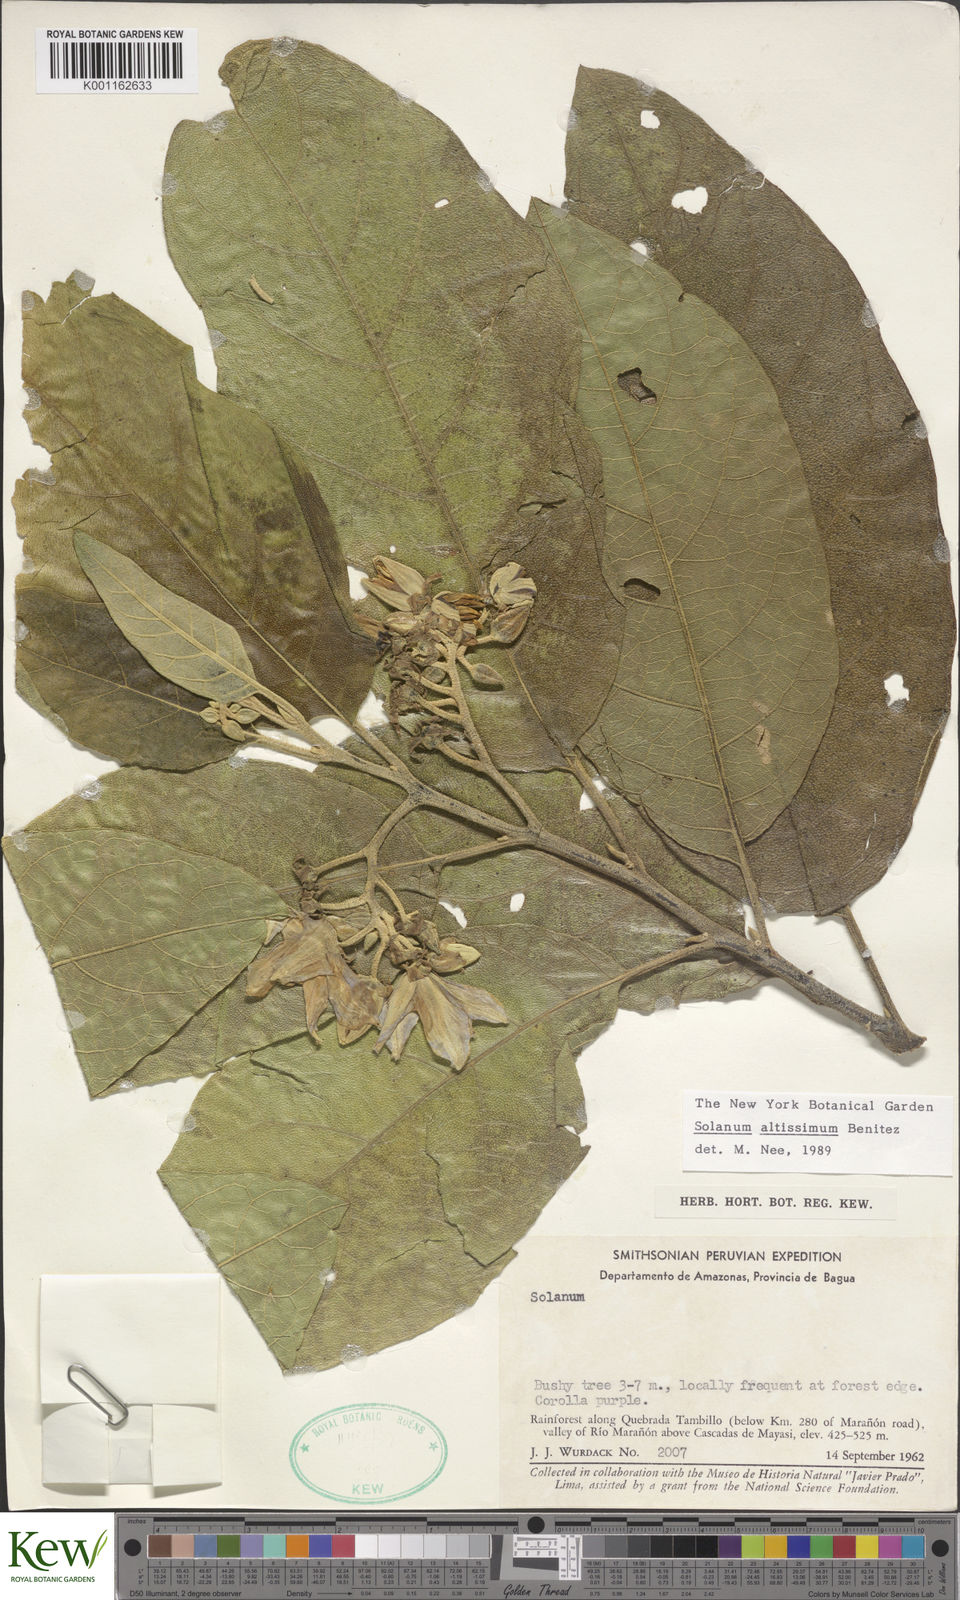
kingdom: Plantae
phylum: Tracheophyta
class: Magnoliopsida
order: Solanales
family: Solanaceae
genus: Solanum
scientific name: Solanum
